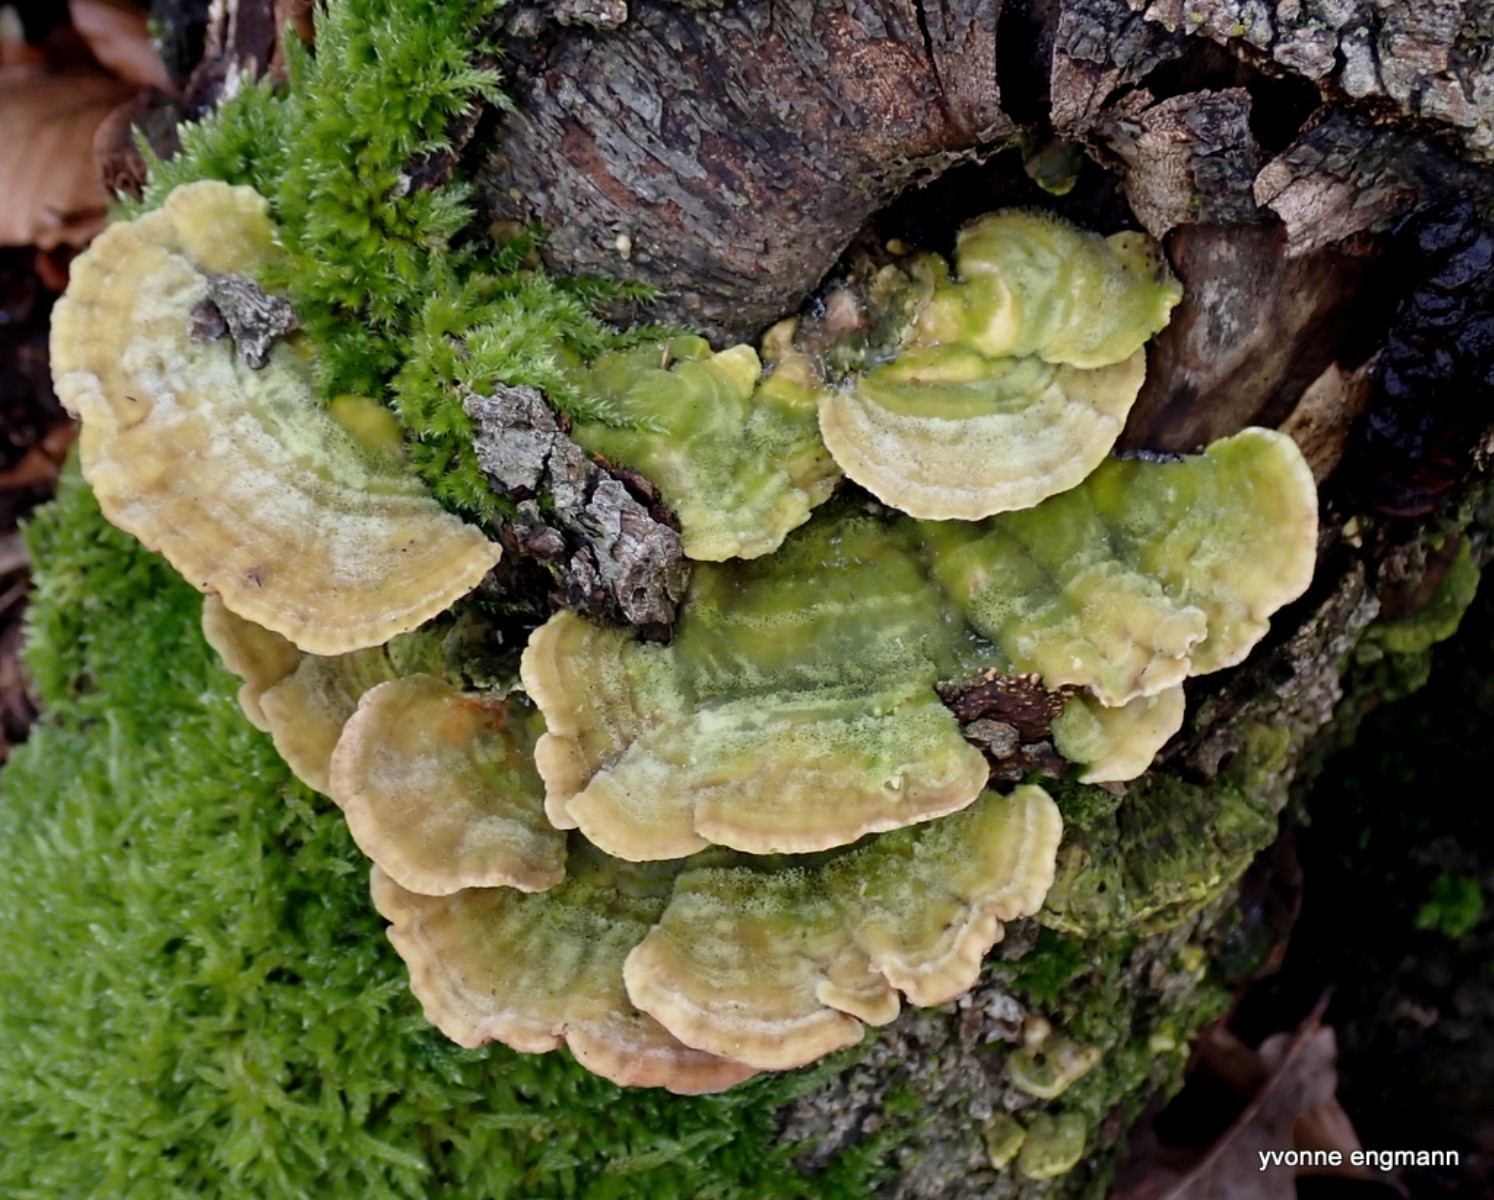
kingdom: Fungi
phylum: Basidiomycota
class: Agaricomycetes
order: Polyporales
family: Polyporaceae
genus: Lenzites
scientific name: Lenzites betulinus
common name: birke-læderporesvamp
